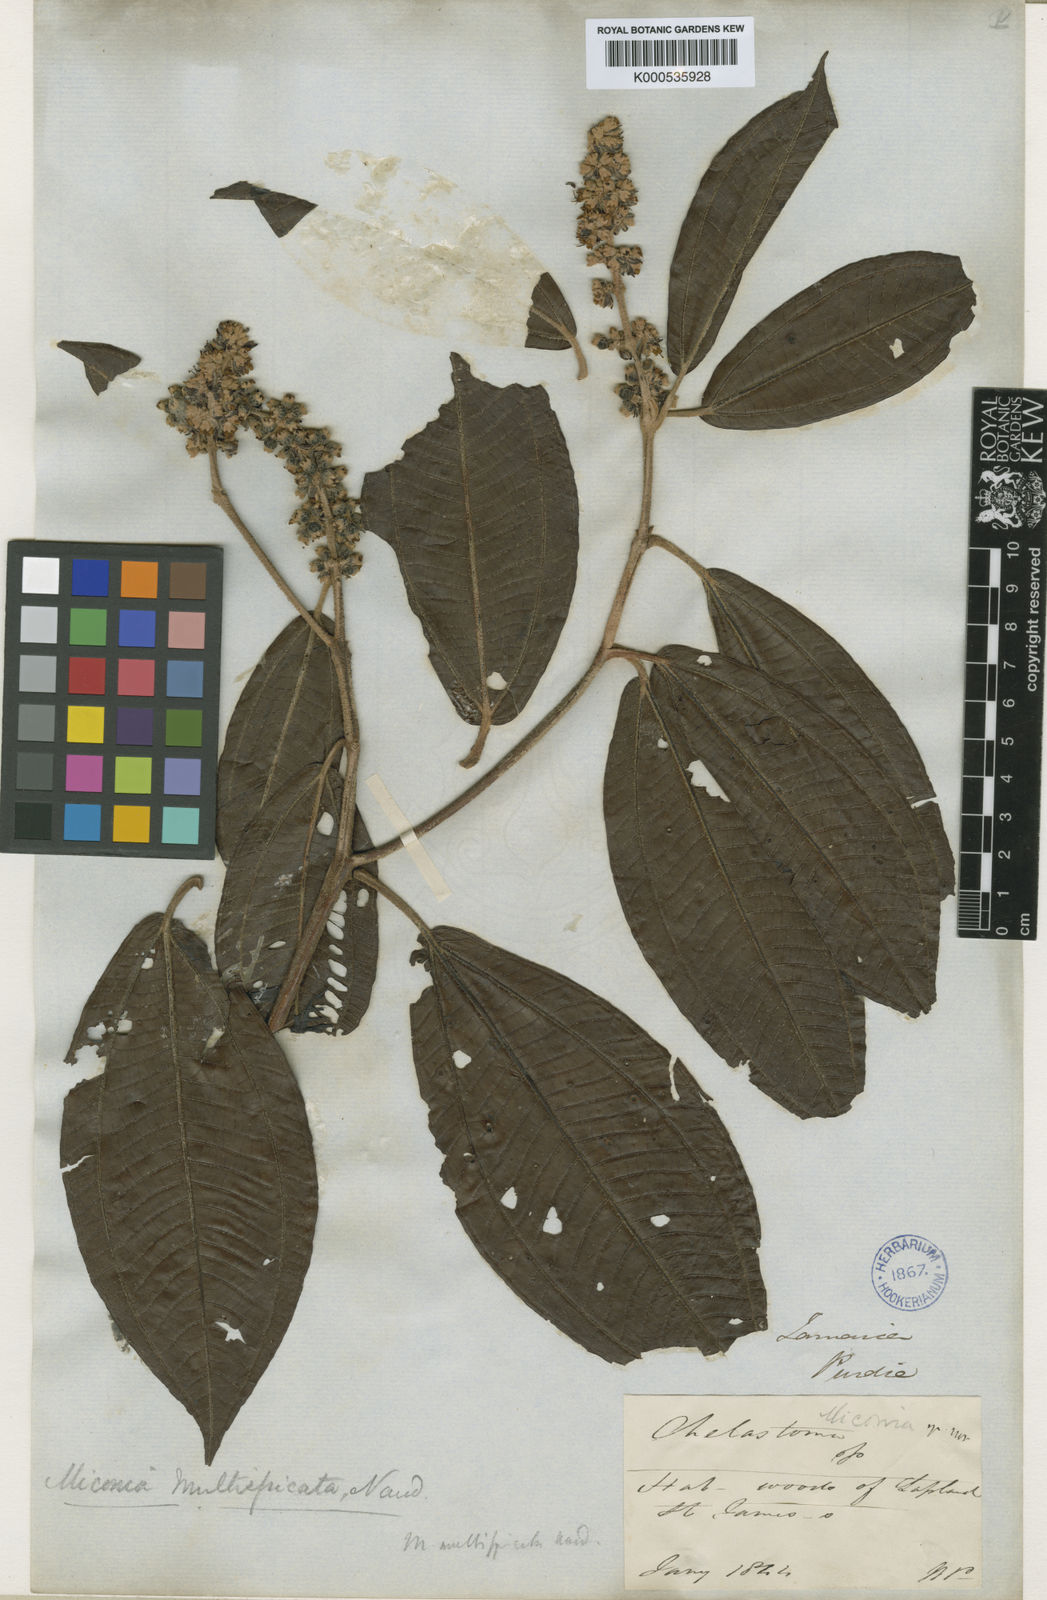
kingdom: Plantae
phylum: Tracheophyta
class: Magnoliopsida
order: Myrtales
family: Melastomataceae
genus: Miconia
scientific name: Miconia multispicata
